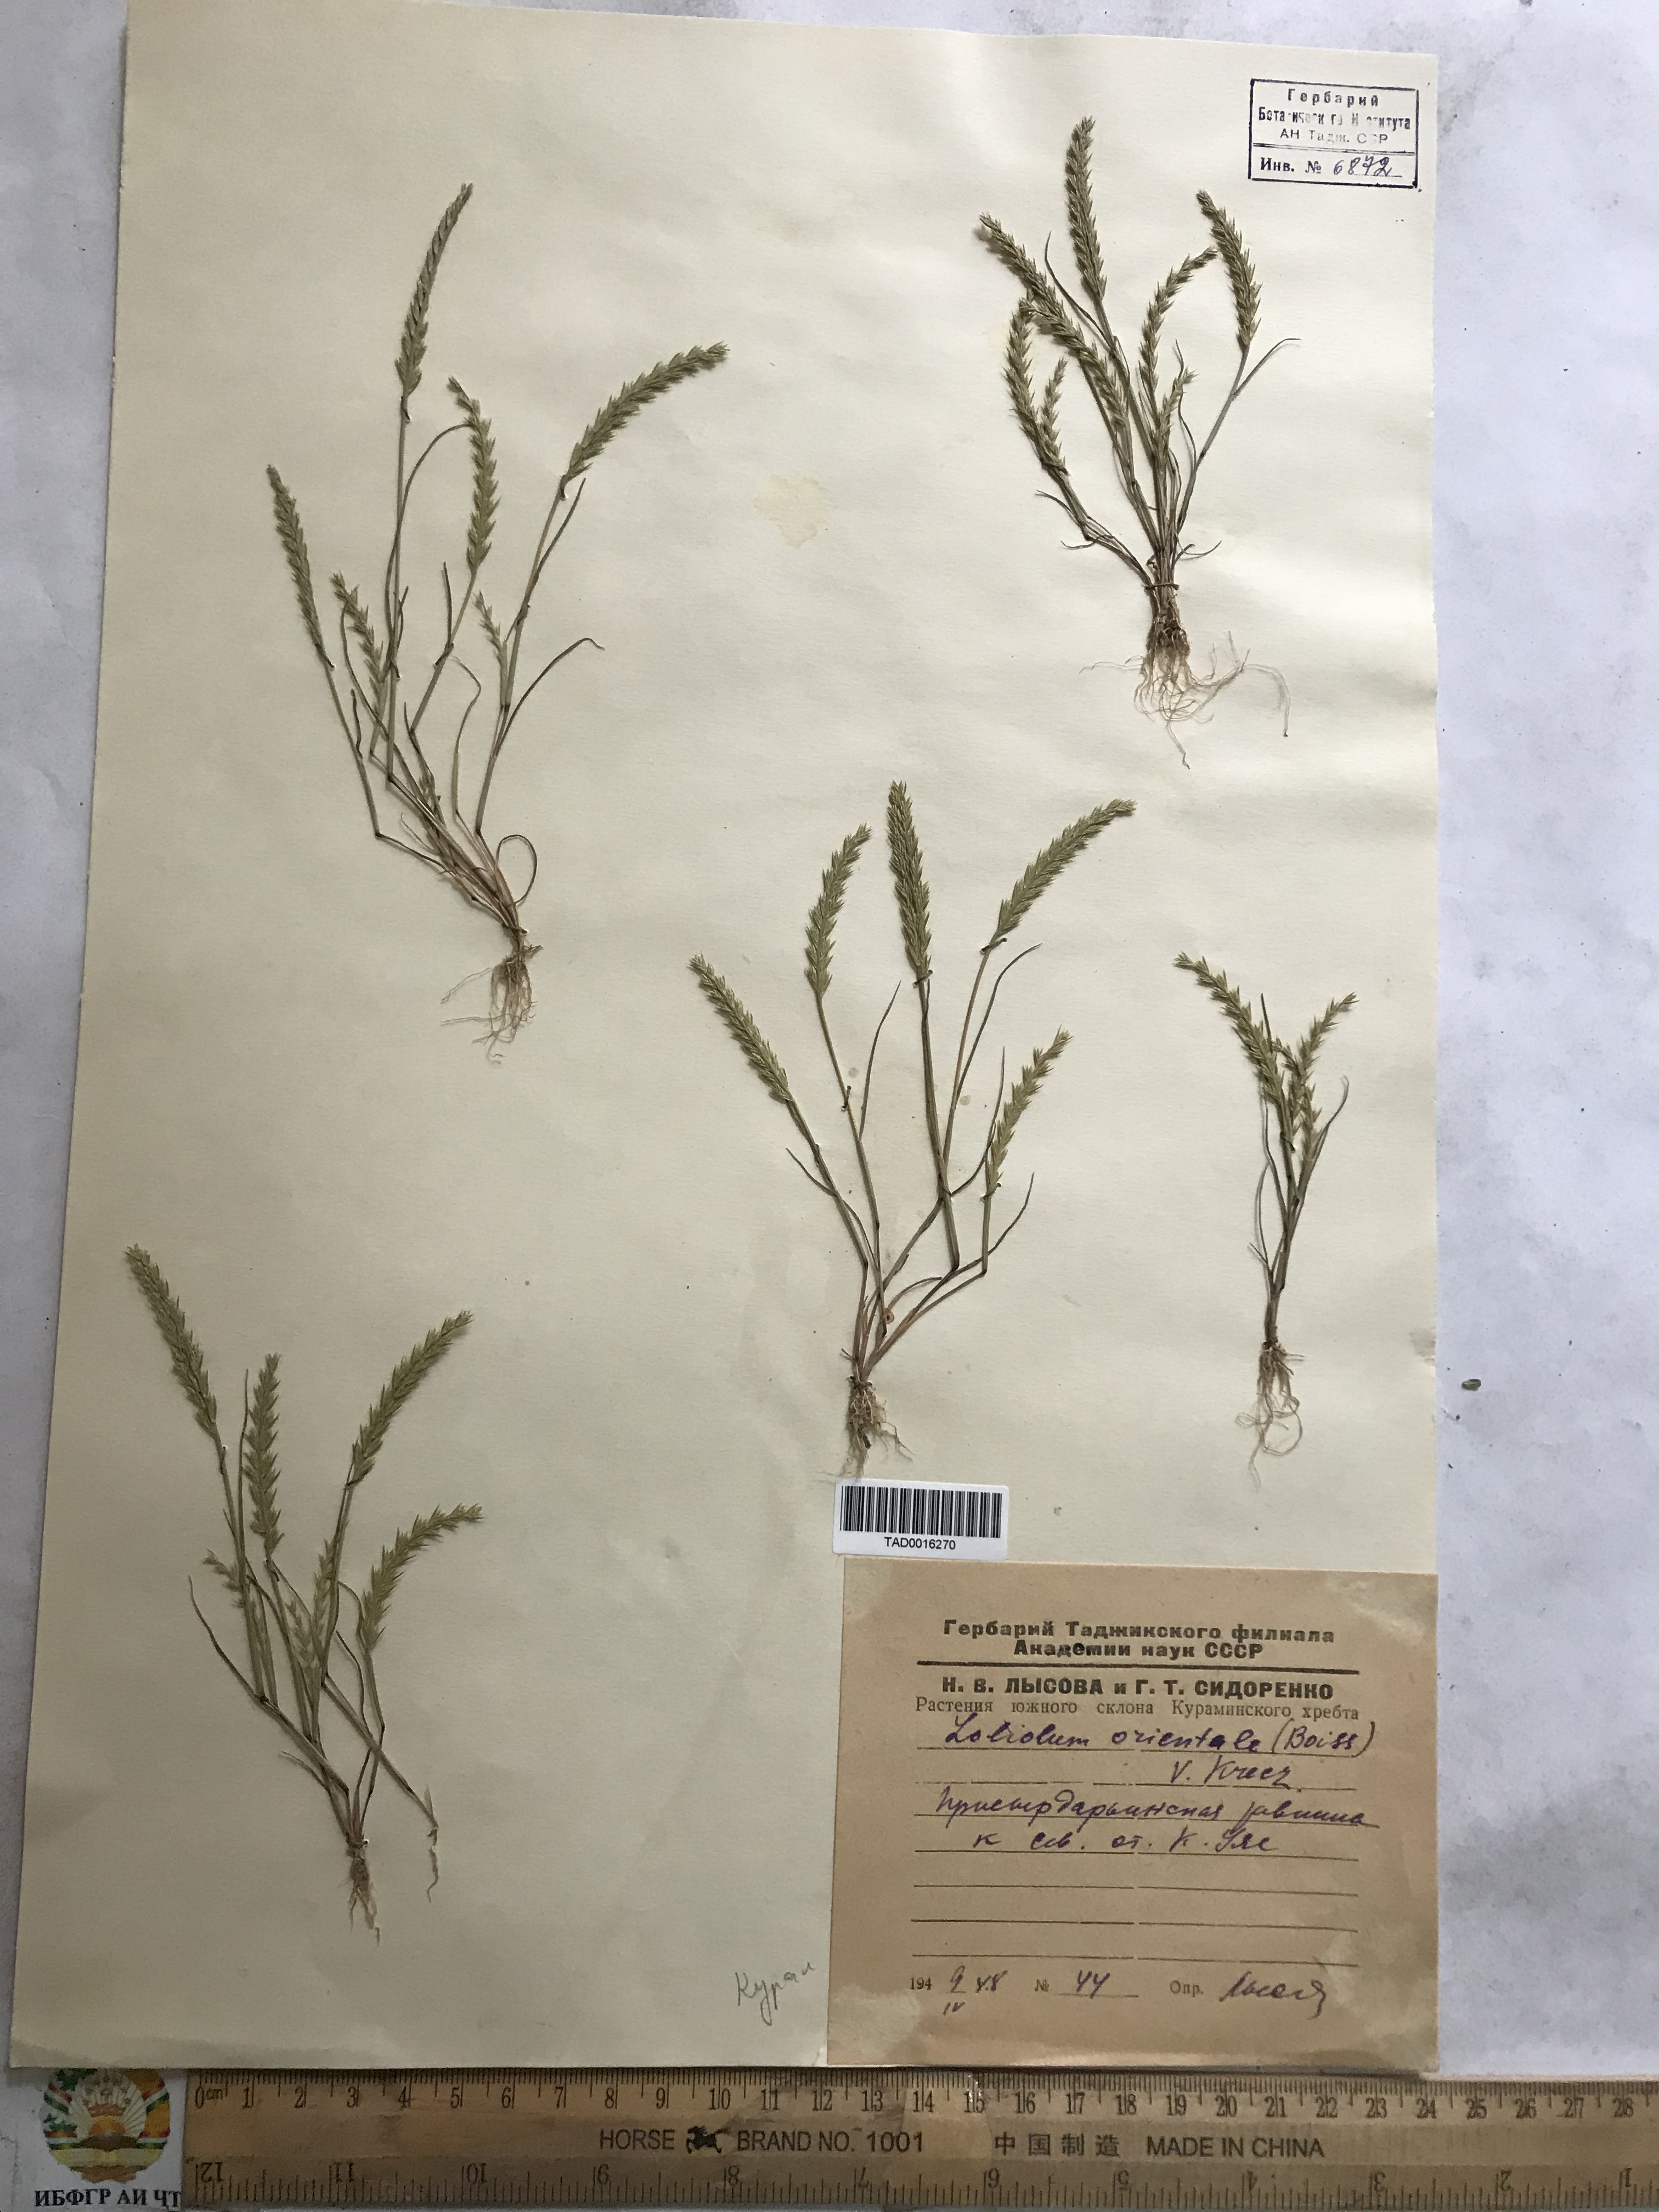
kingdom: Plantae
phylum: Tracheophyta
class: Liliopsida
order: Poales
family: Poaceae
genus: Festuca
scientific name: Festuca
